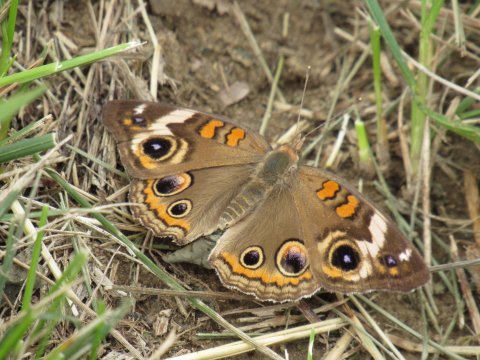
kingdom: Animalia
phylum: Arthropoda
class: Insecta
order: Lepidoptera
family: Nymphalidae
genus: Junonia
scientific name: Junonia coenia
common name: Common Buckeye
